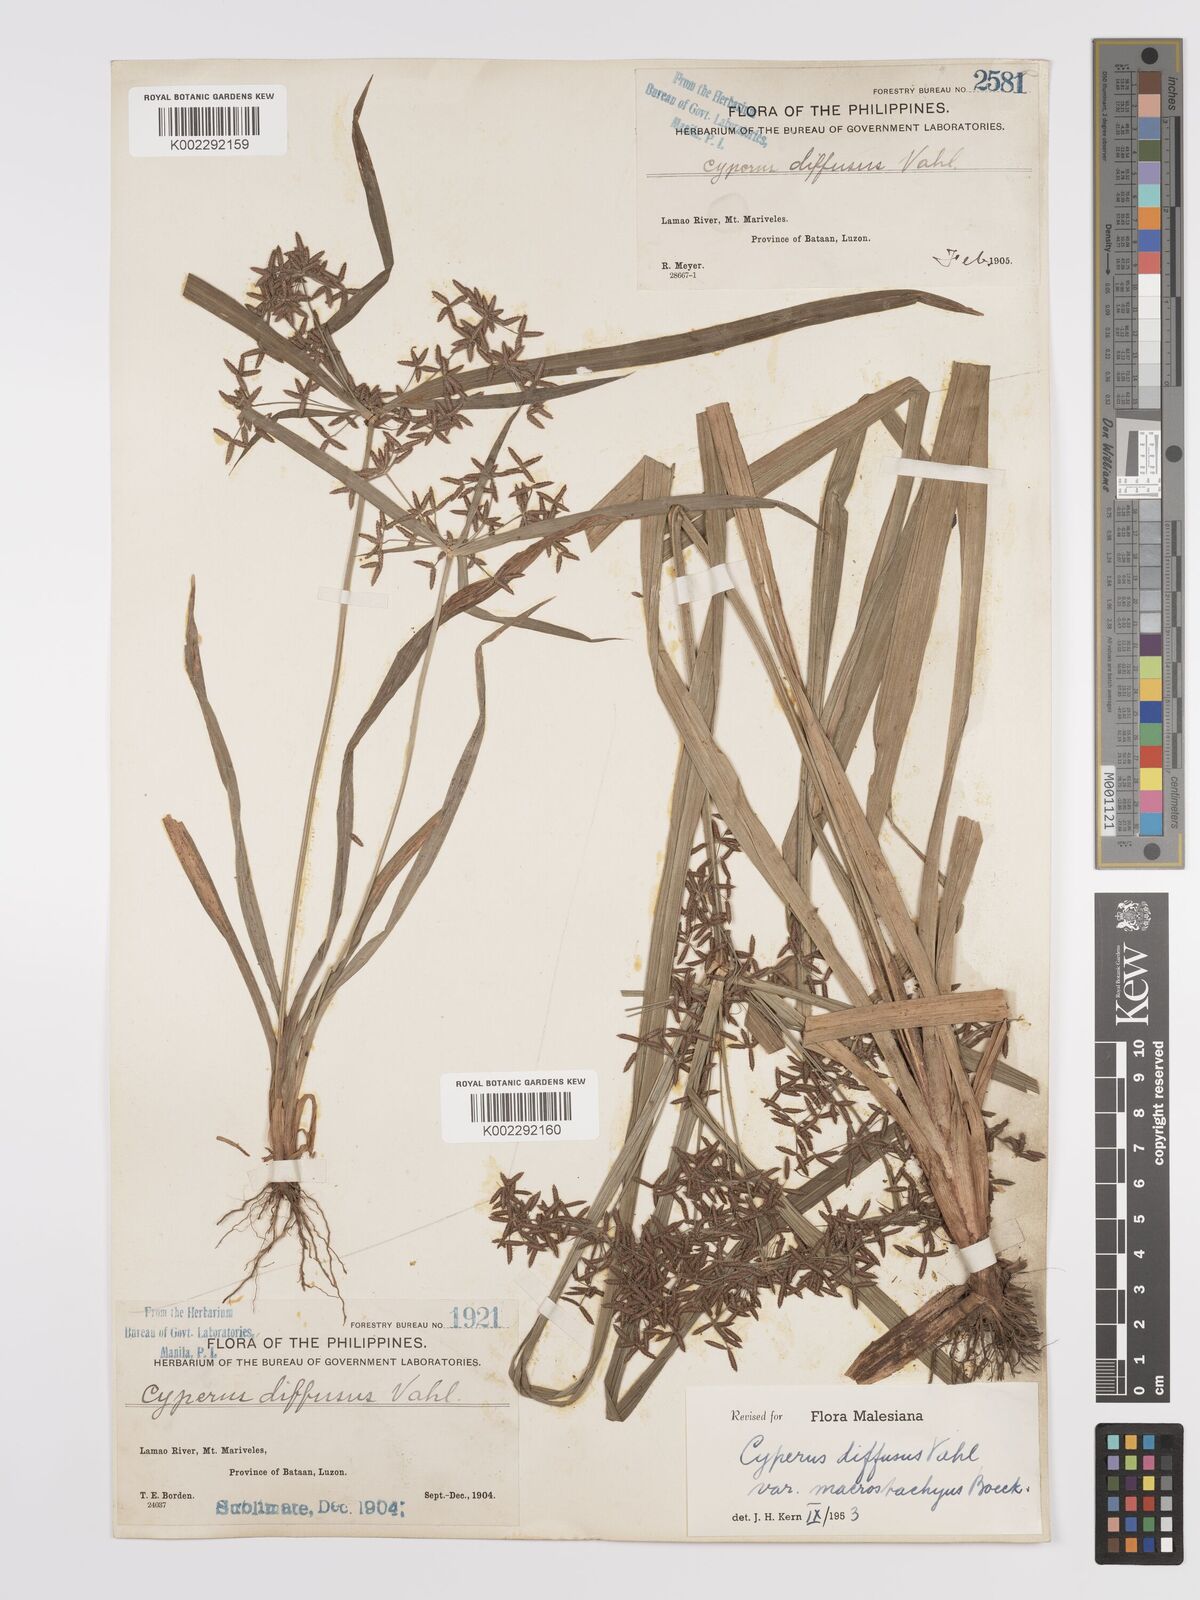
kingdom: Plantae
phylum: Tracheophyta
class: Liliopsida
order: Poales
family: Cyperaceae
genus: Cyperus
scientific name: Cyperus diffusus
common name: Dwarf umbrella grass
